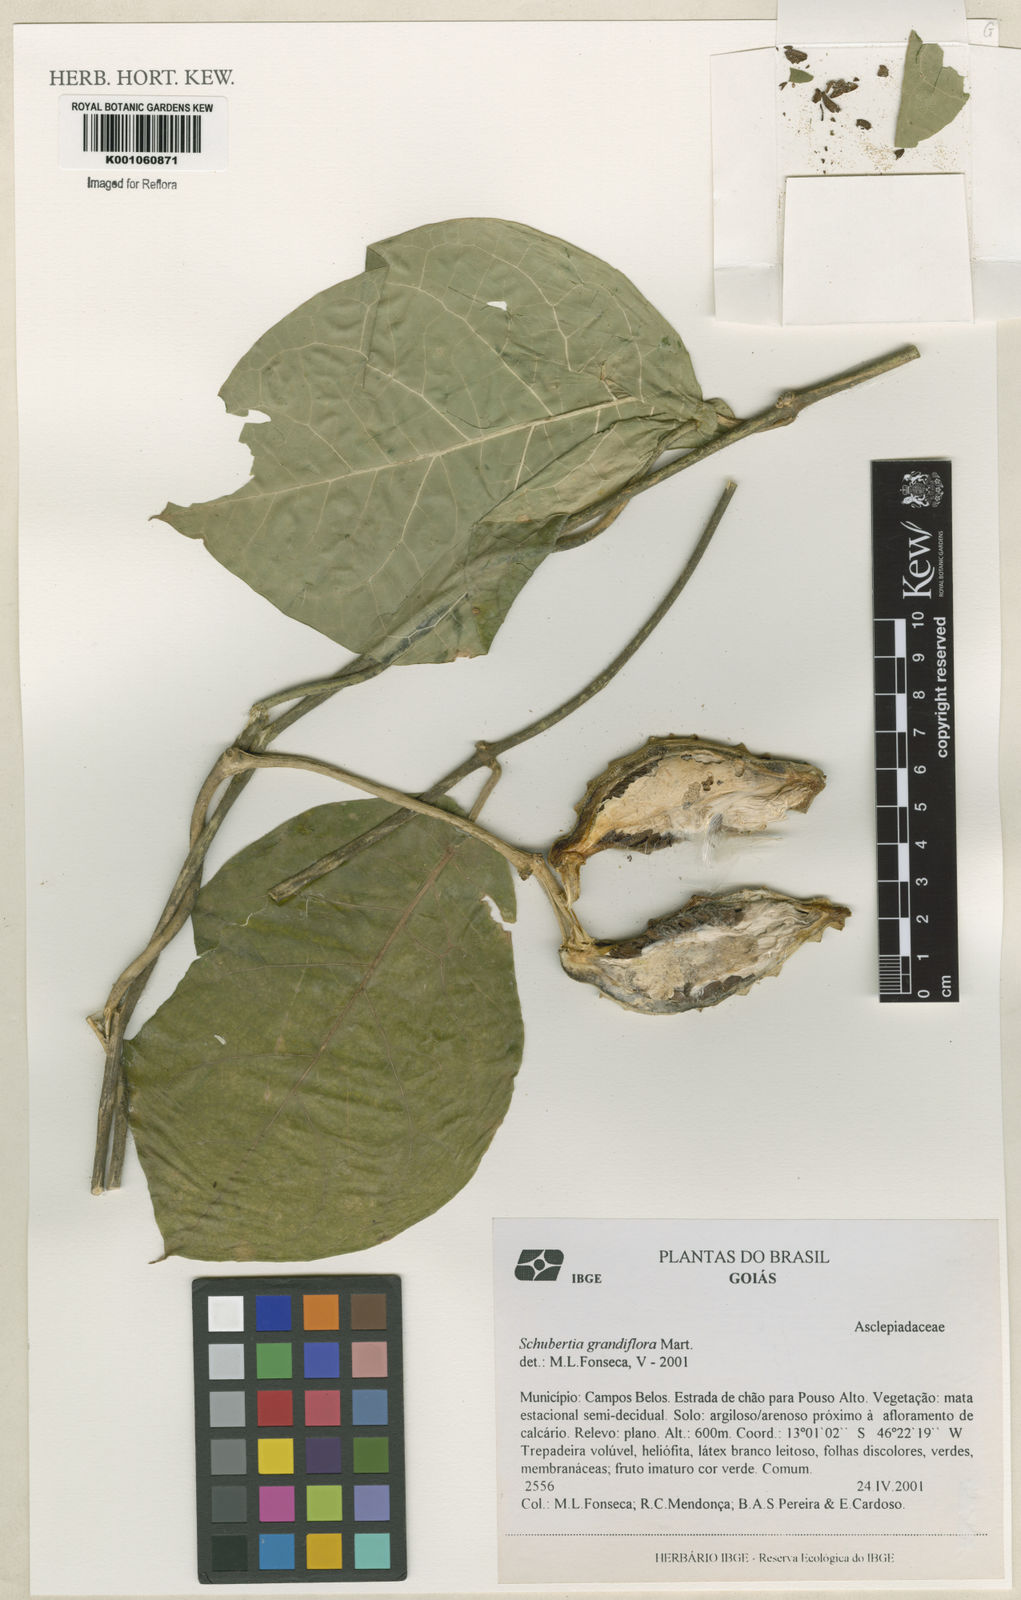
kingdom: Plantae
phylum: Tracheophyta
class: Magnoliopsida
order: Gentianales
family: Apocynaceae
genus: Macroscepis
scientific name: Macroscepis grandiflora
